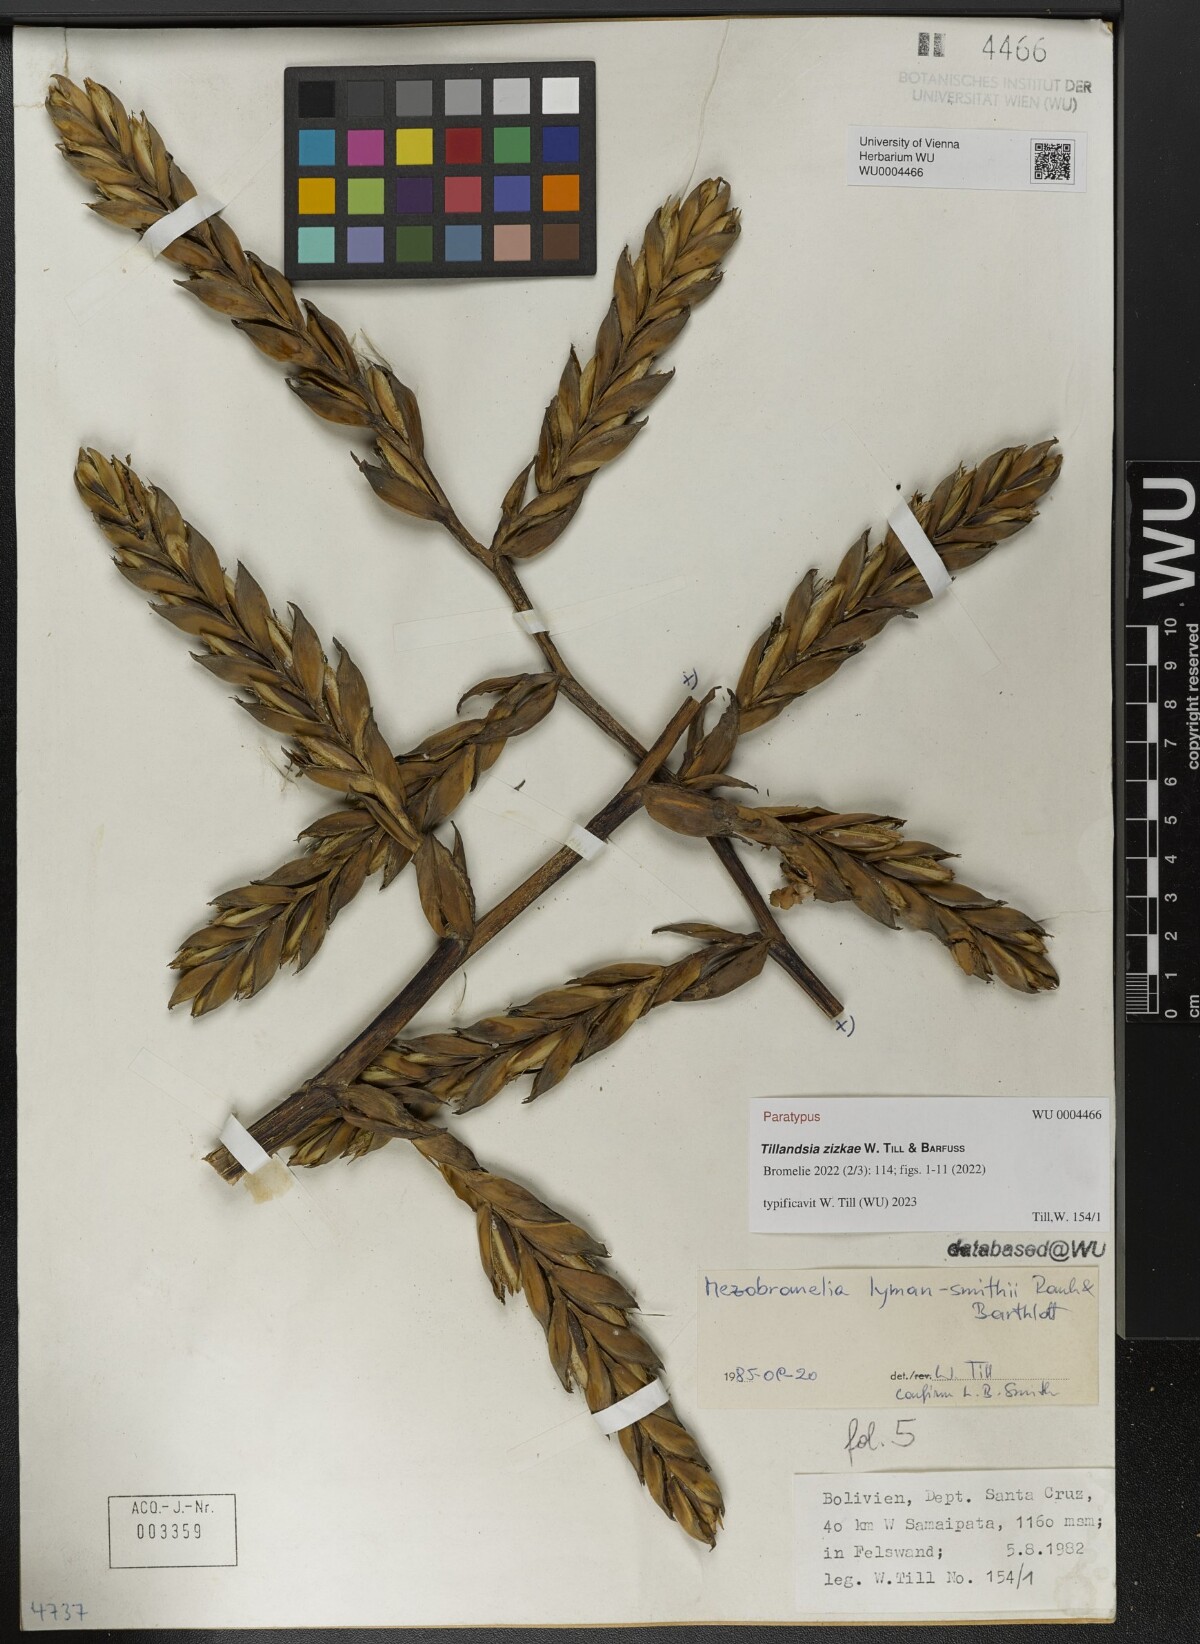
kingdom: Plantae
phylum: Tracheophyta
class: Liliopsida
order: Poales
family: Bromeliaceae
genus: Tillandsia
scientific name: Tillandsia
